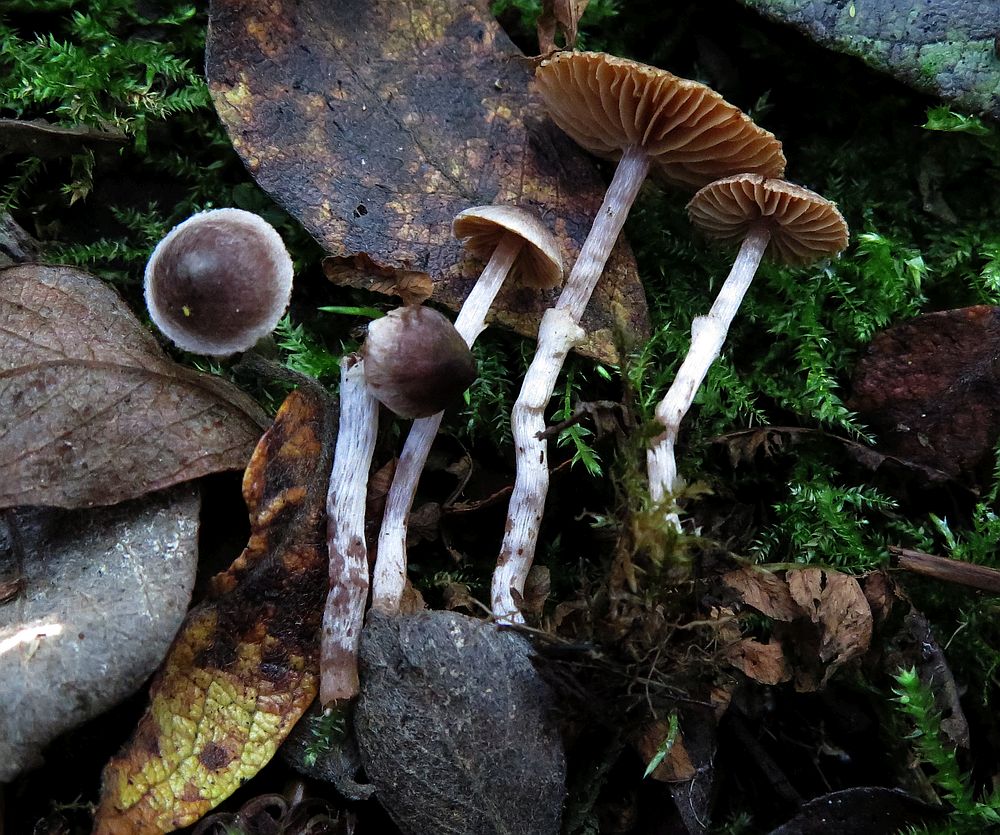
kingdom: Fungi
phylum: Basidiomycota
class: Agaricomycetes
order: Agaricales
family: Cortinariaceae
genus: Cortinarius
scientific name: Cortinarius decipiens
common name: blåsort slørhat
